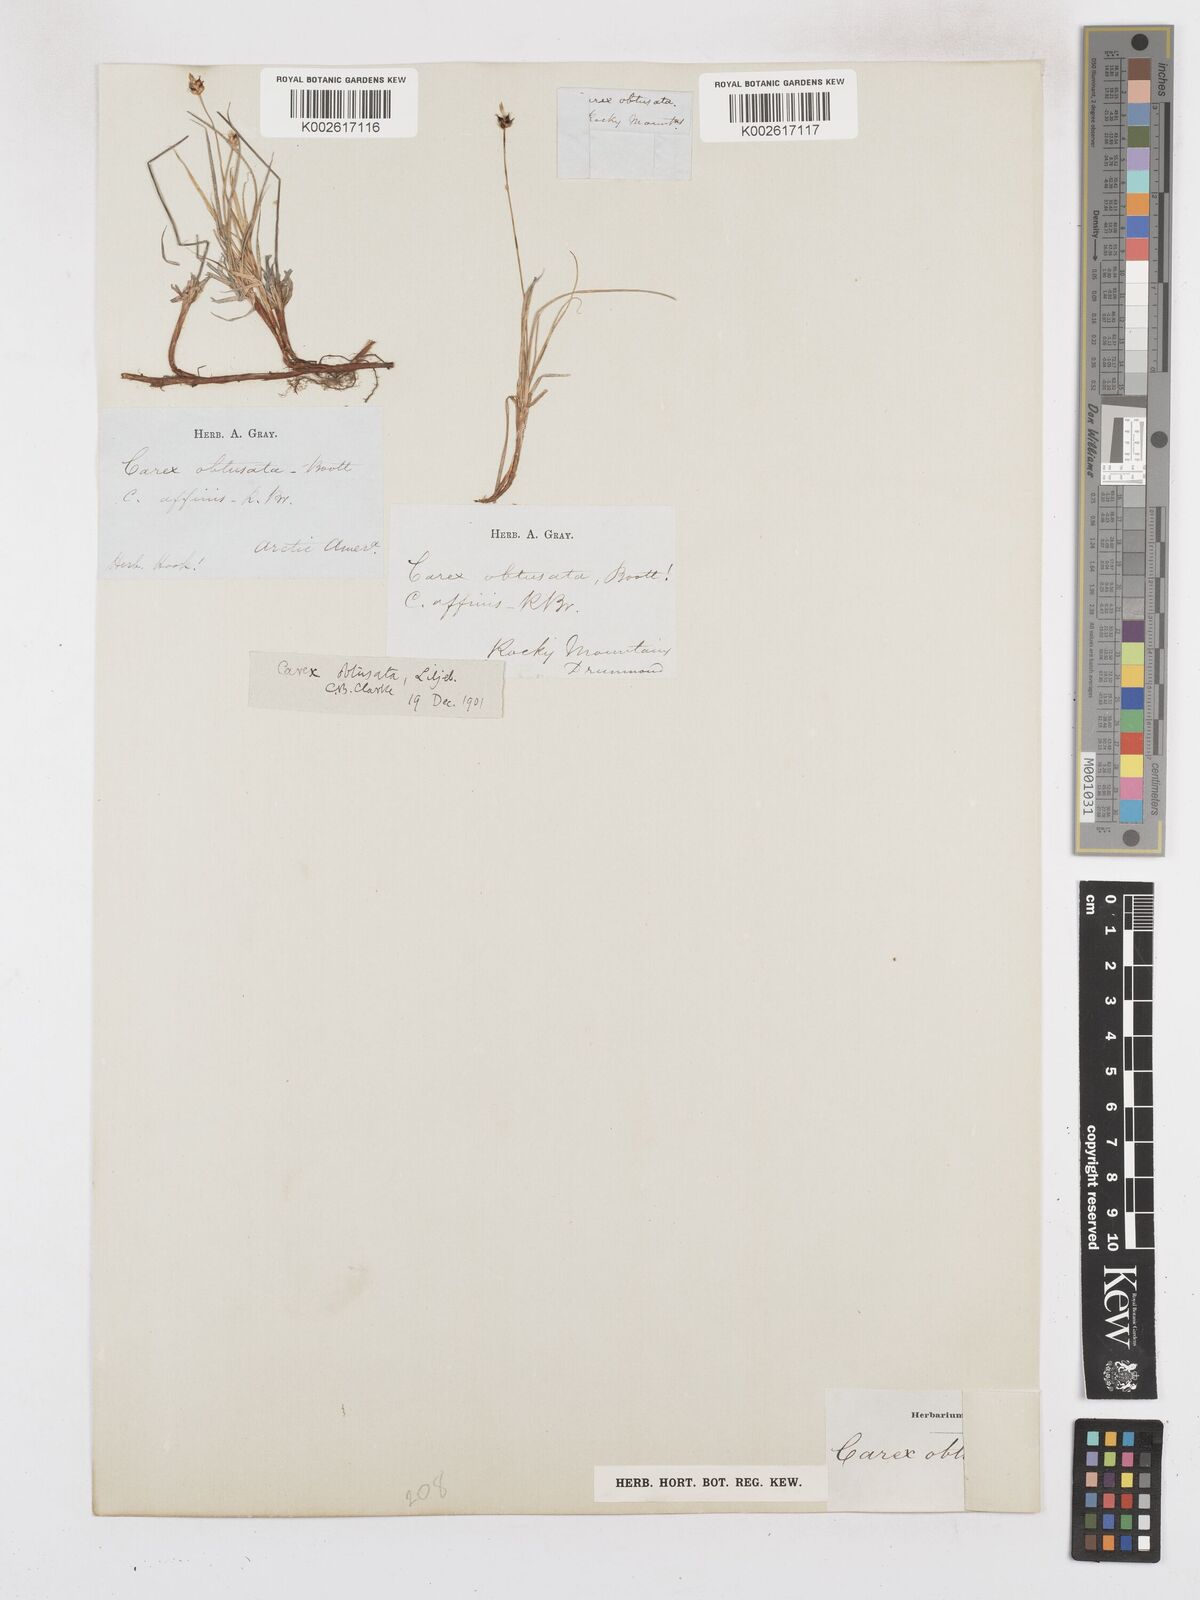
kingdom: Plantae
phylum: Tracheophyta
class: Liliopsida
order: Poales
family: Cyperaceae
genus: Carex
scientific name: Carex obtusata
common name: Blunt sedge
